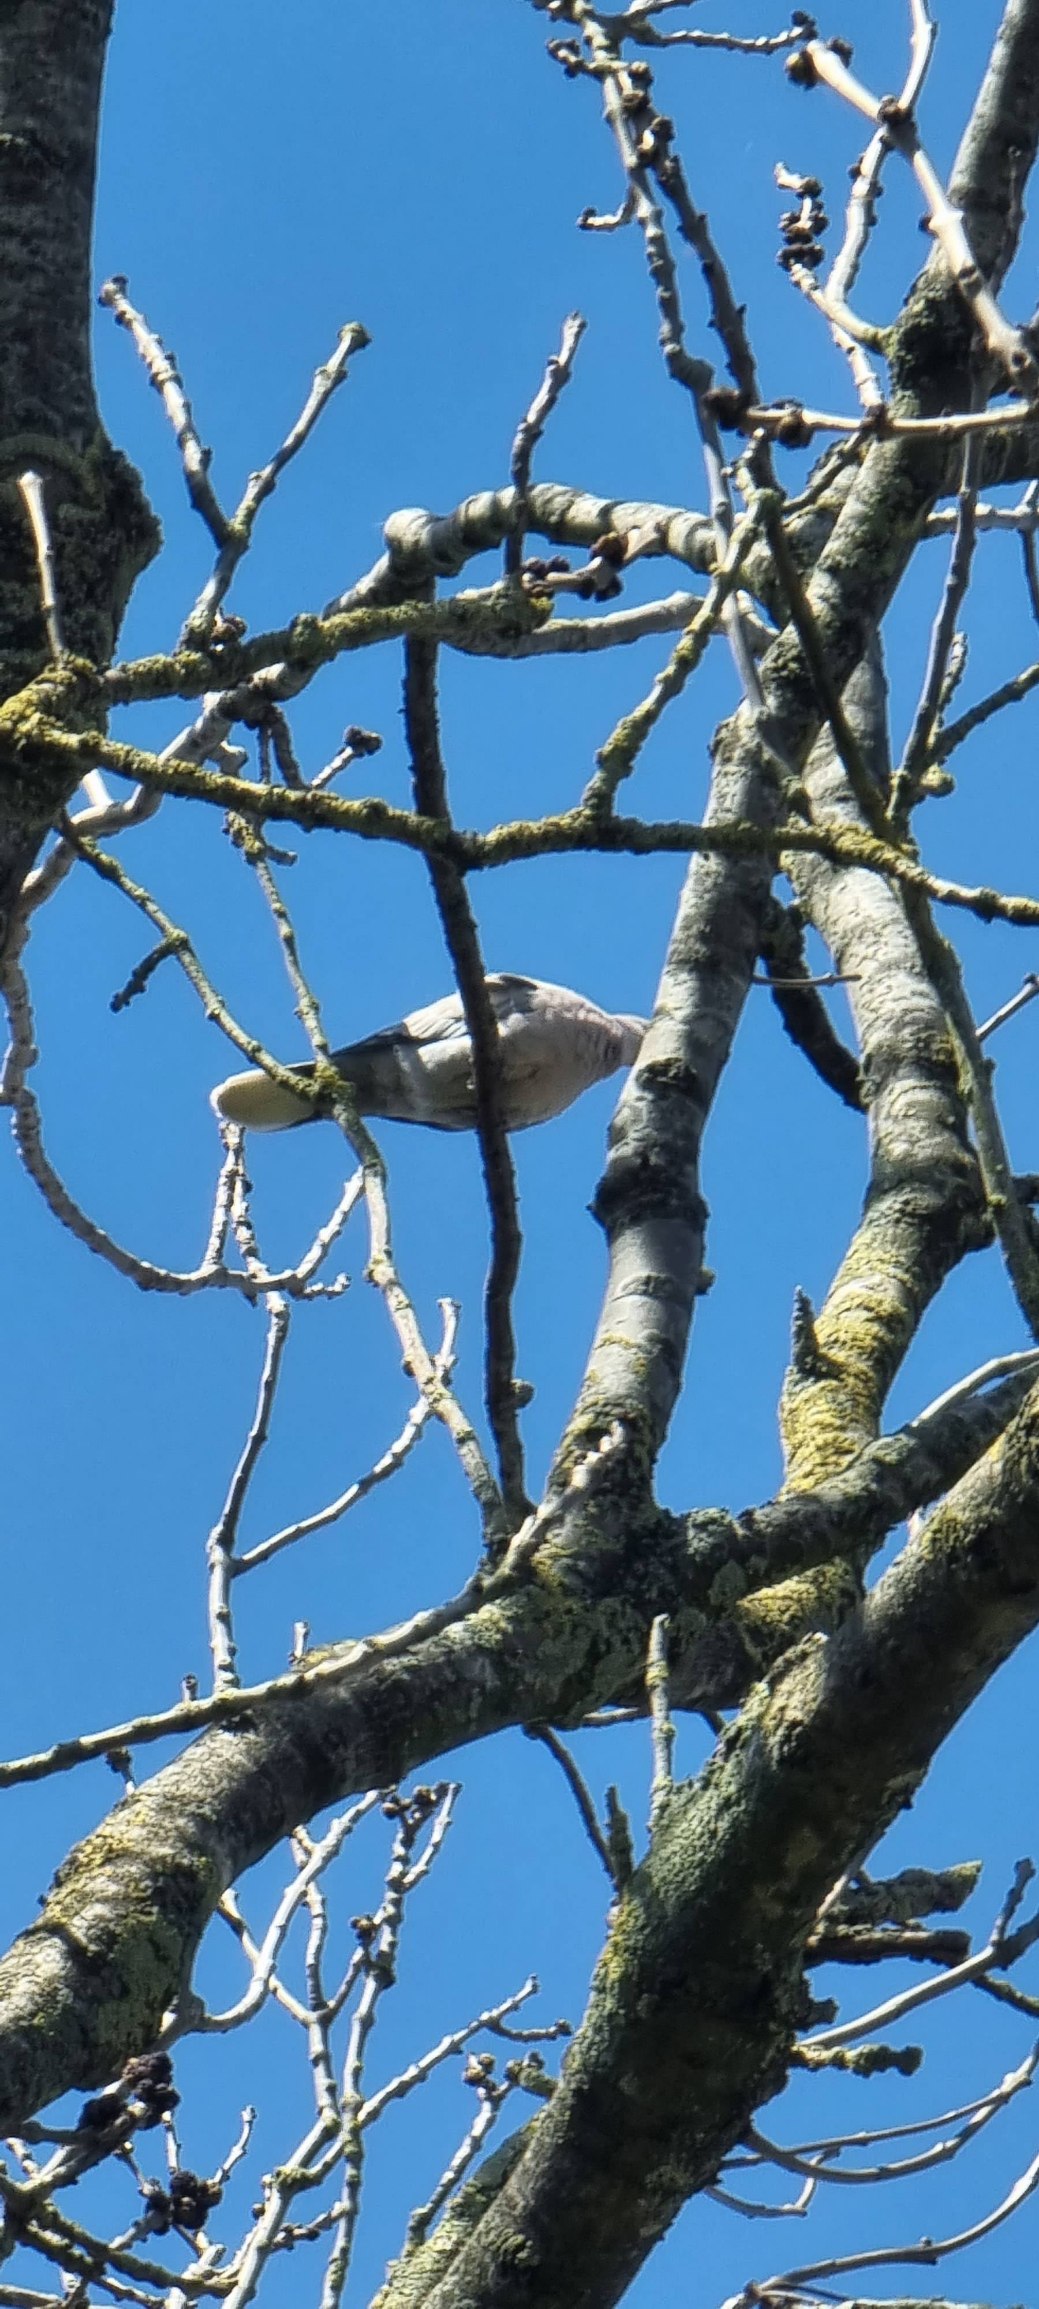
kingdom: Animalia
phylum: Chordata
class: Aves
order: Columbiformes
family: Columbidae
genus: Streptopelia
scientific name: Streptopelia decaocto
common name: Tyrkerdue
